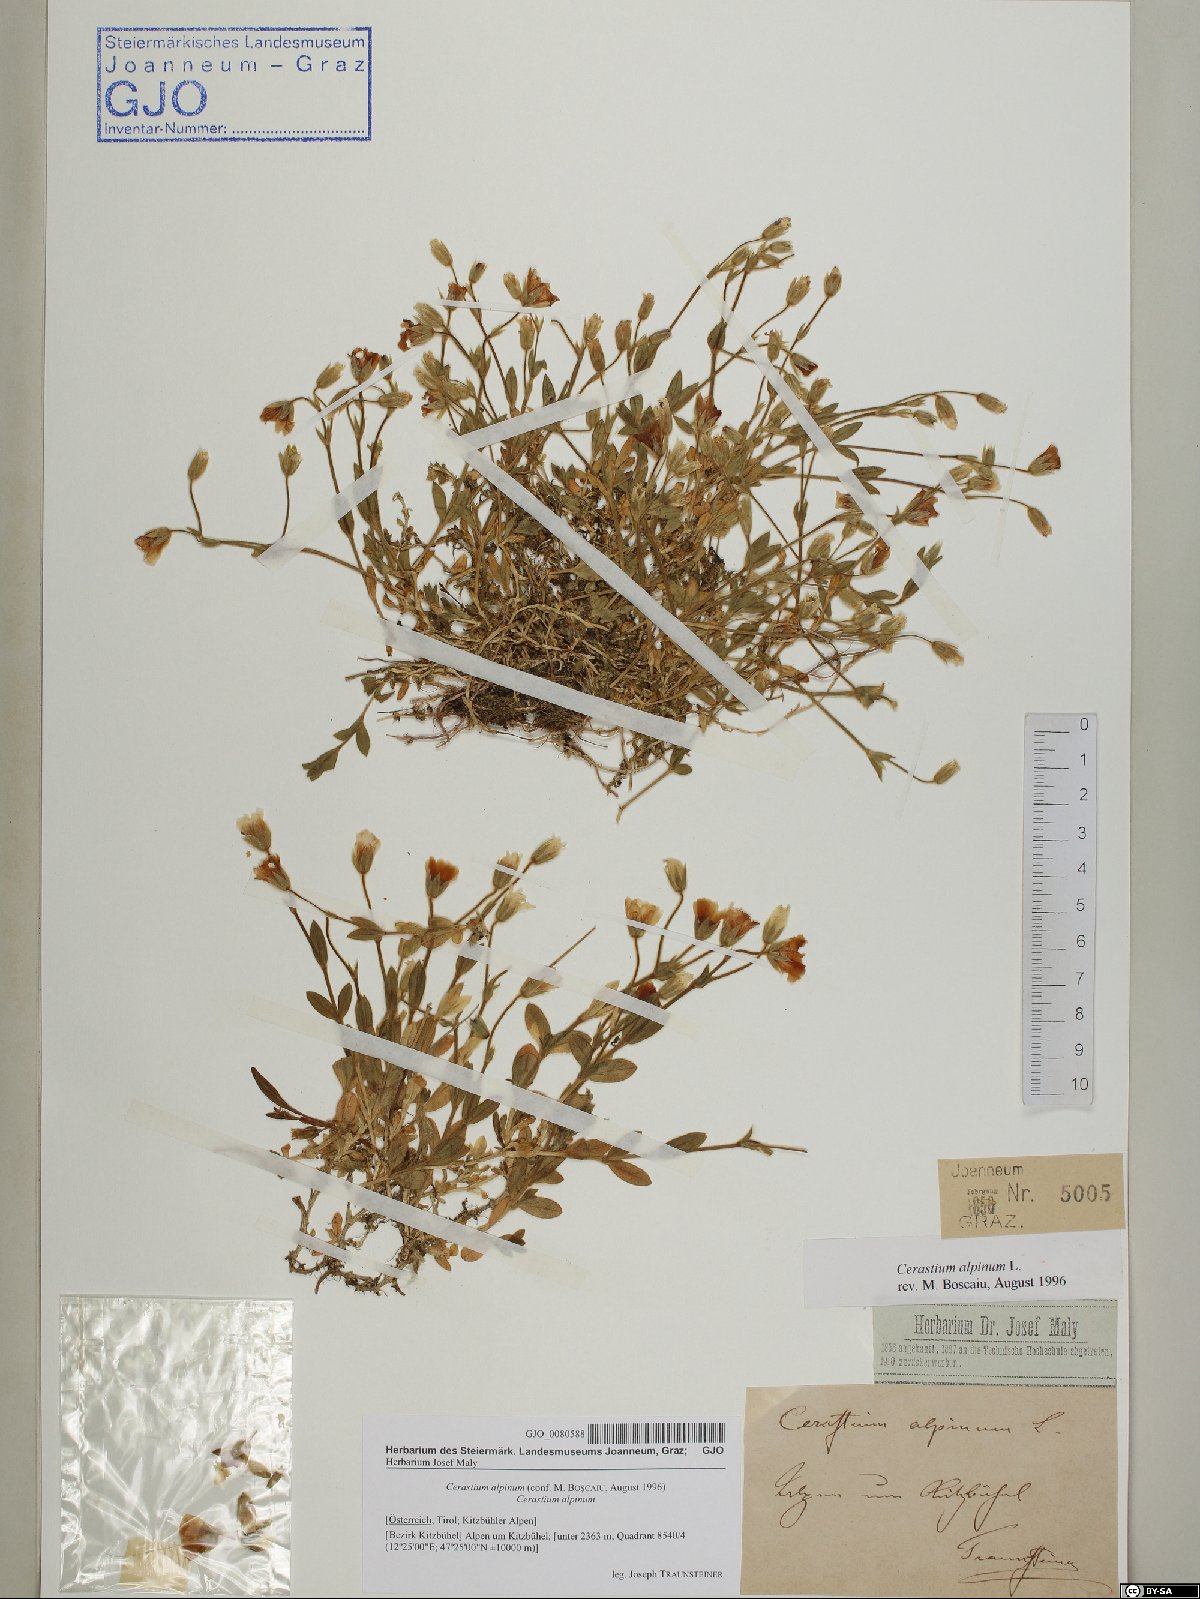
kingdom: Plantae
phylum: Tracheophyta
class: Magnoliopsida
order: Caryophyllales
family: Caryophyllaceae
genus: Cerastium
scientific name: Cerastium alpinum
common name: Alpine mouse-ear
